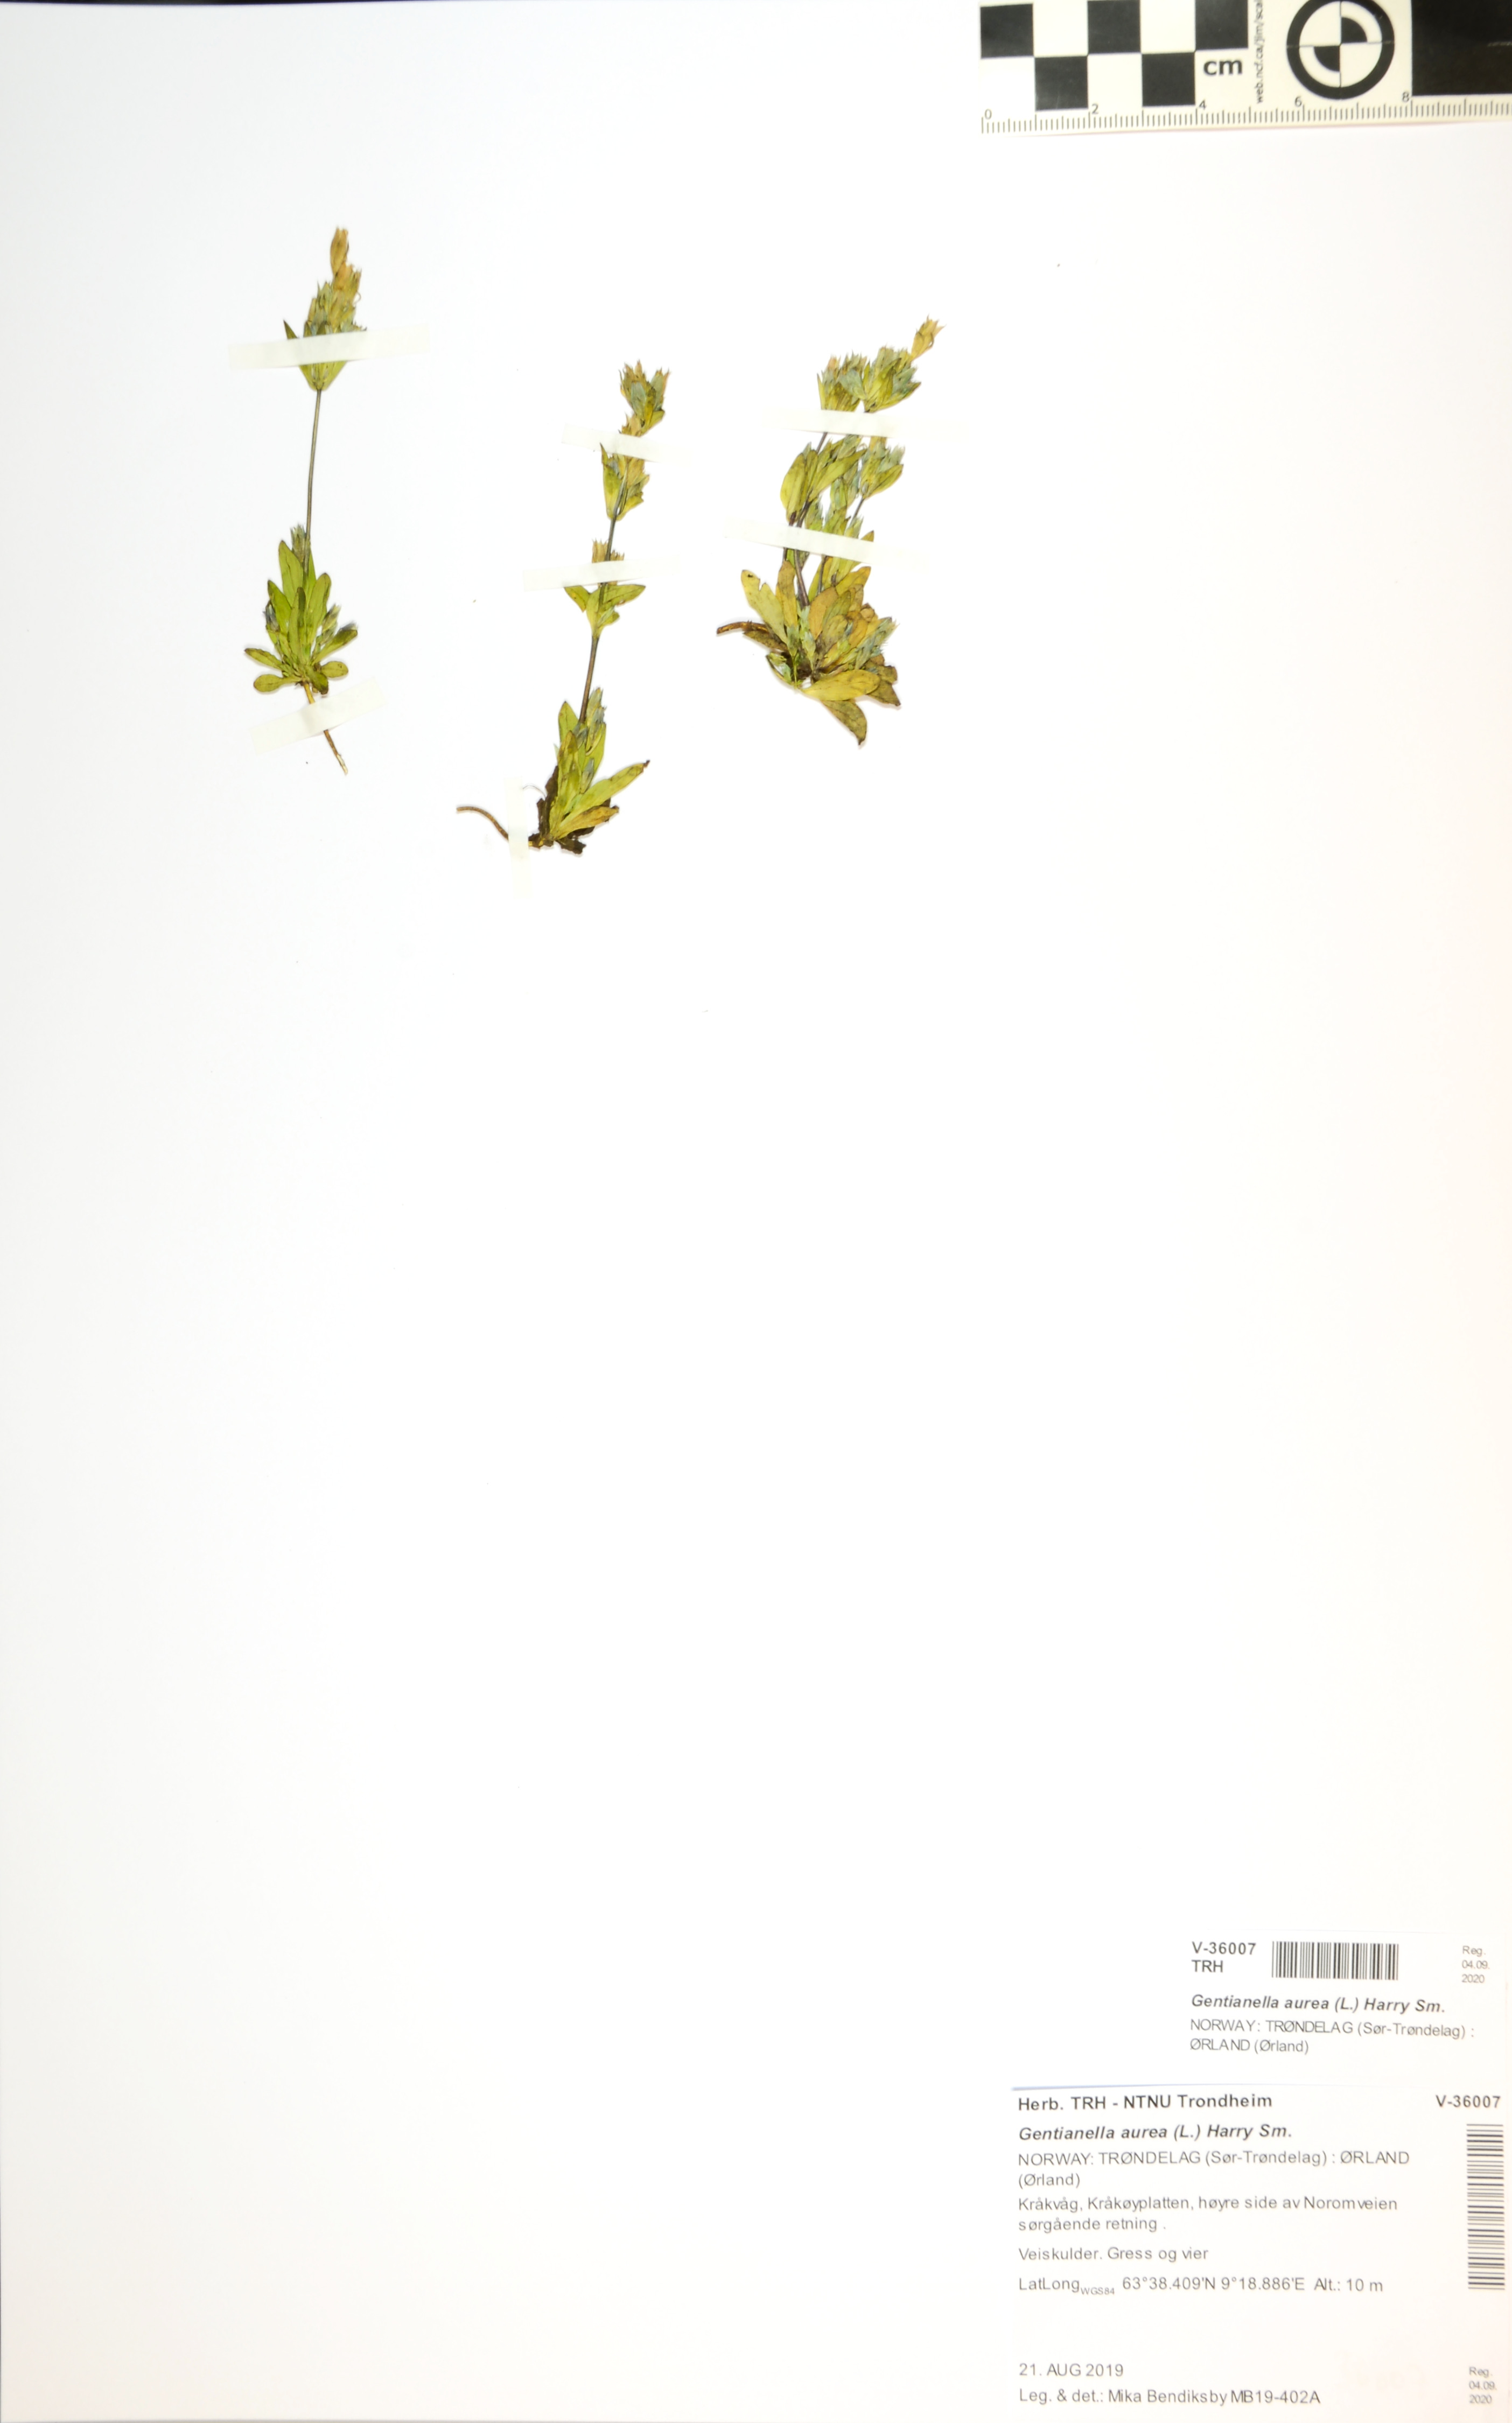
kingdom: Plantae
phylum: Tracheophyta
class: Magnoliopsida
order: Gentianales
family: Gentianaceae
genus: Gentianella
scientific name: Gentianella aurea
